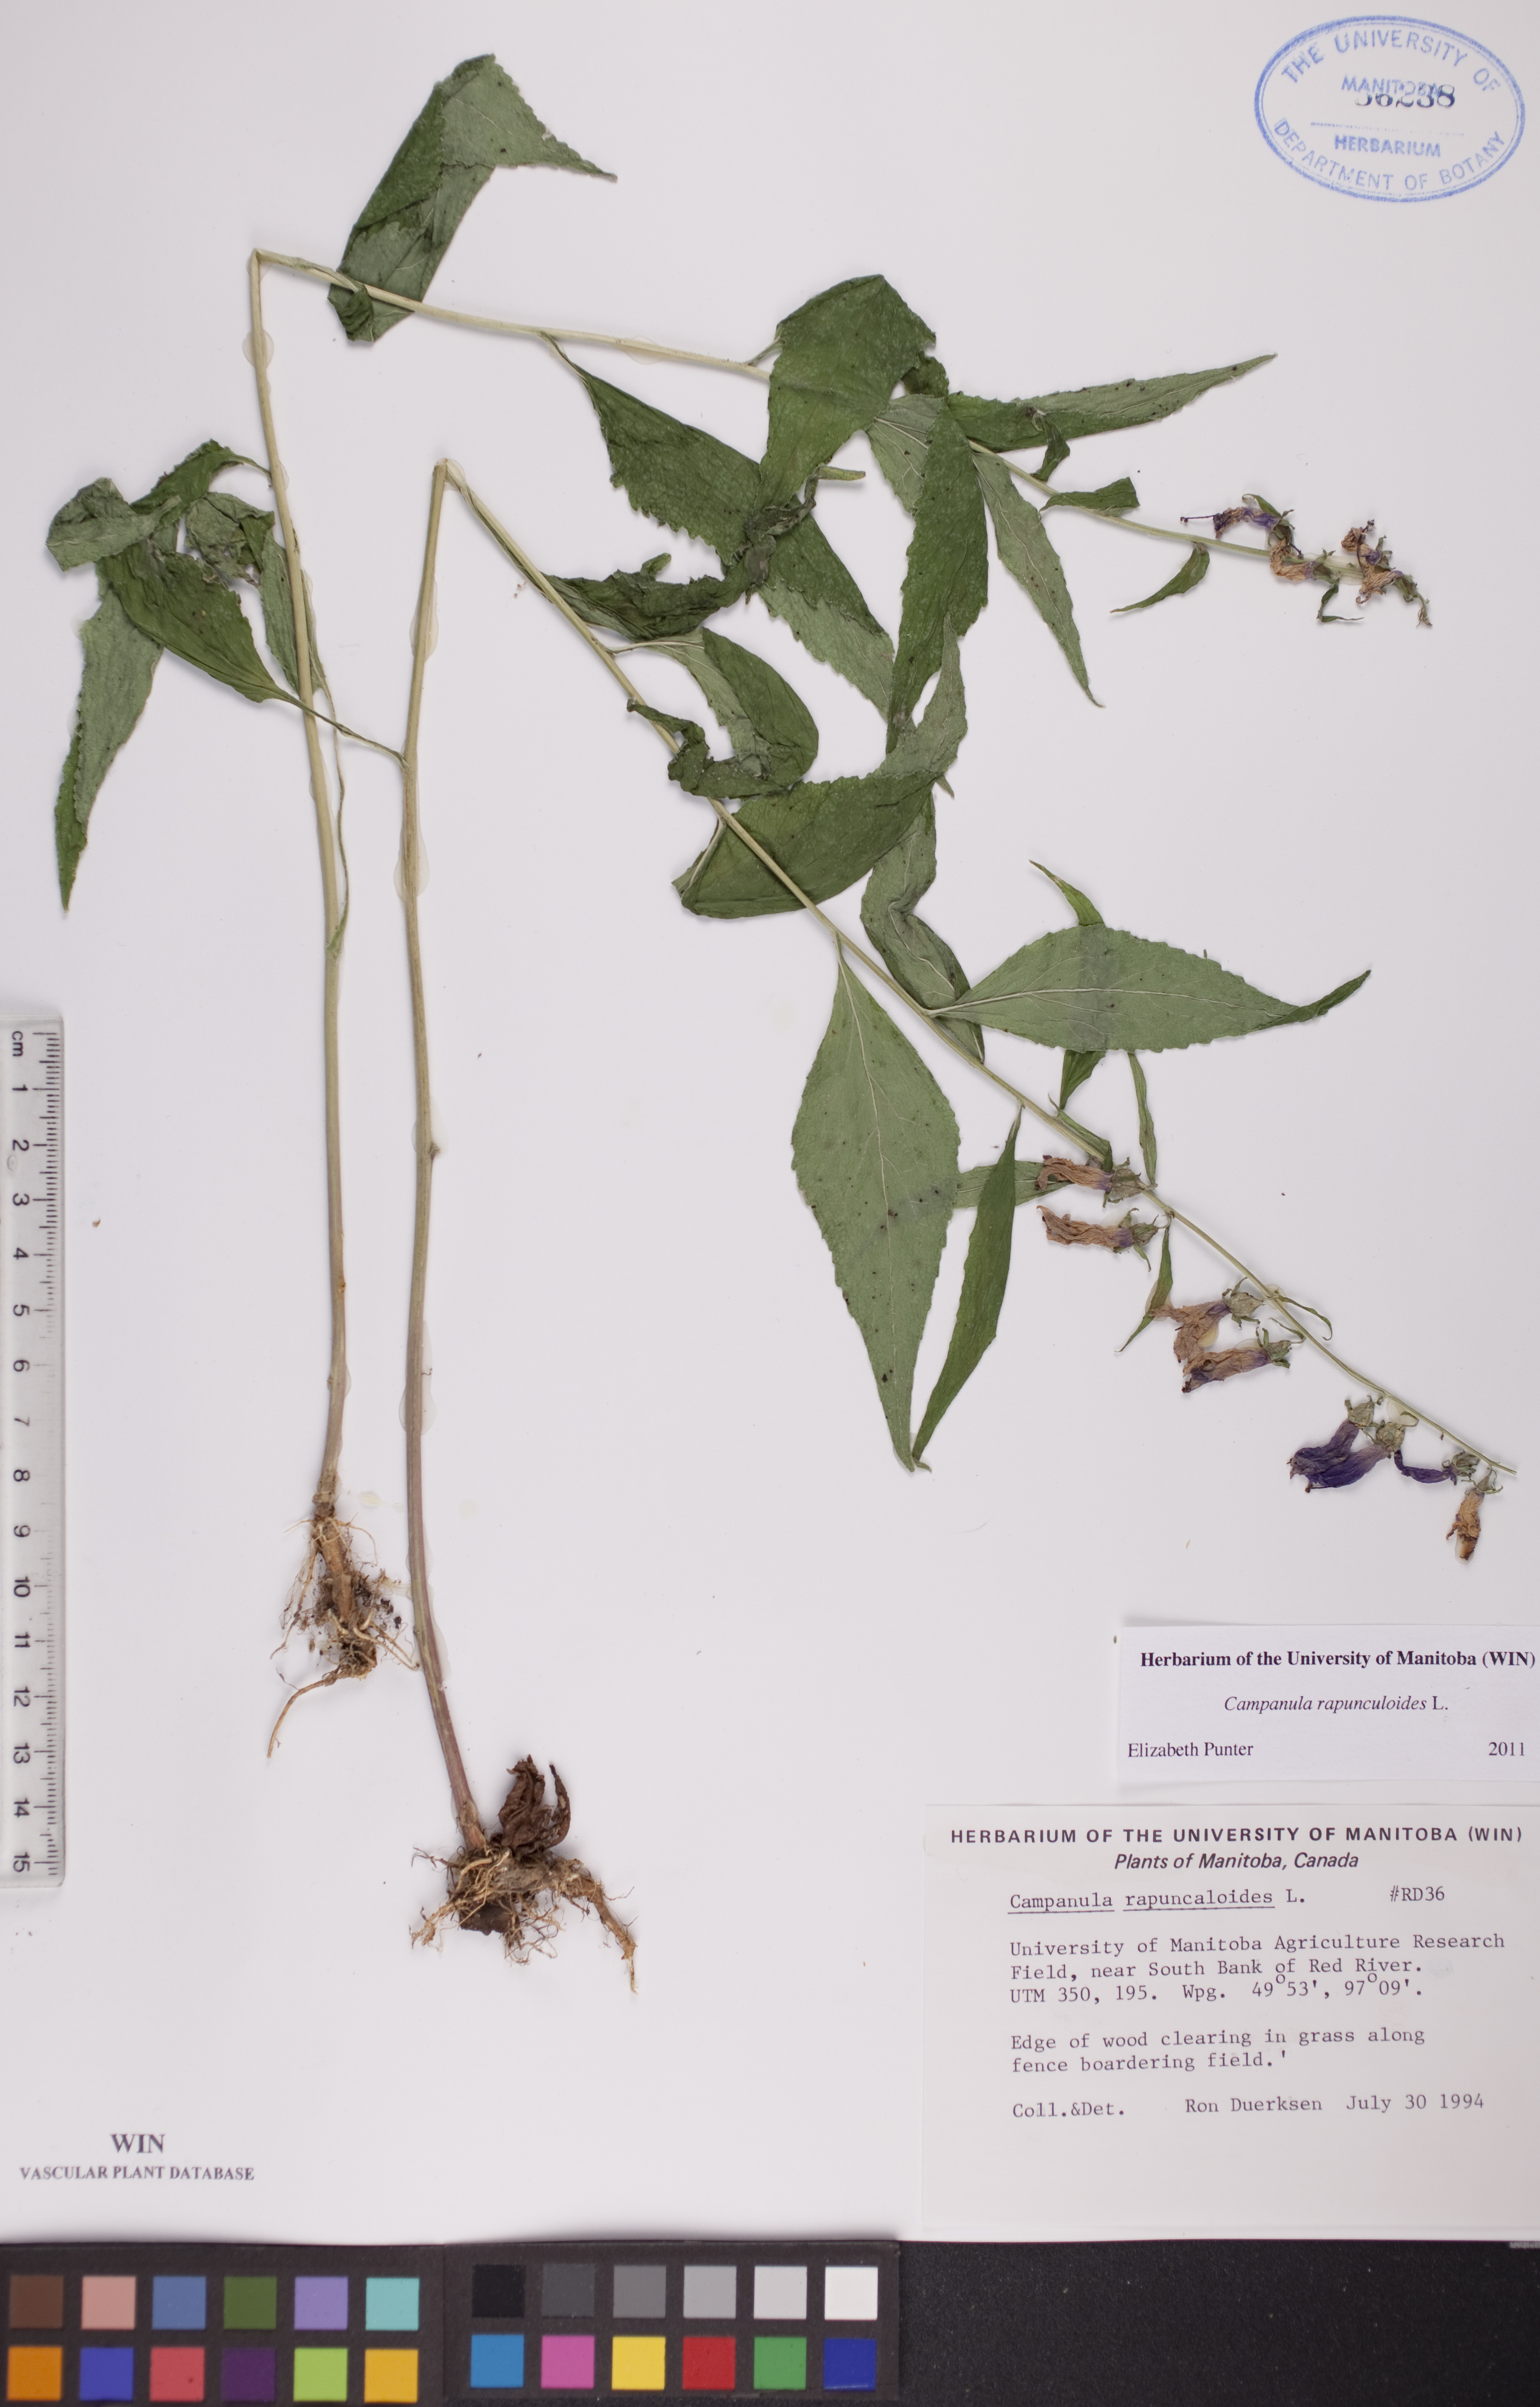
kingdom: Plantae
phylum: Tracheophyta
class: Magnoliopsida
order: Asterales
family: Campanulaceae
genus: Campanula
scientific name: Campanula rapunculoides
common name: Creeping bellflower
